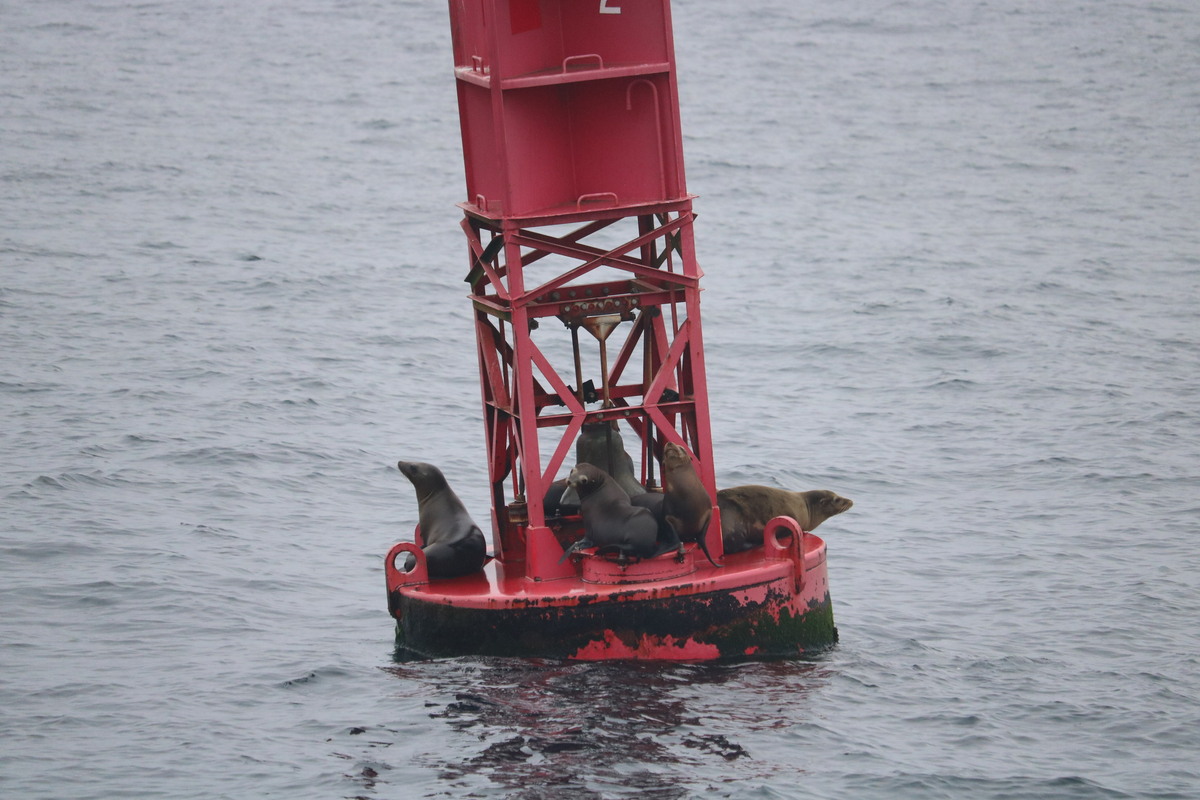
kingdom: Animalia
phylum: Chordata
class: Mammalia
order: Carnivora
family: Otariidae
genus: Zalophus
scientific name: Zalophus californianus
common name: California sea lion
